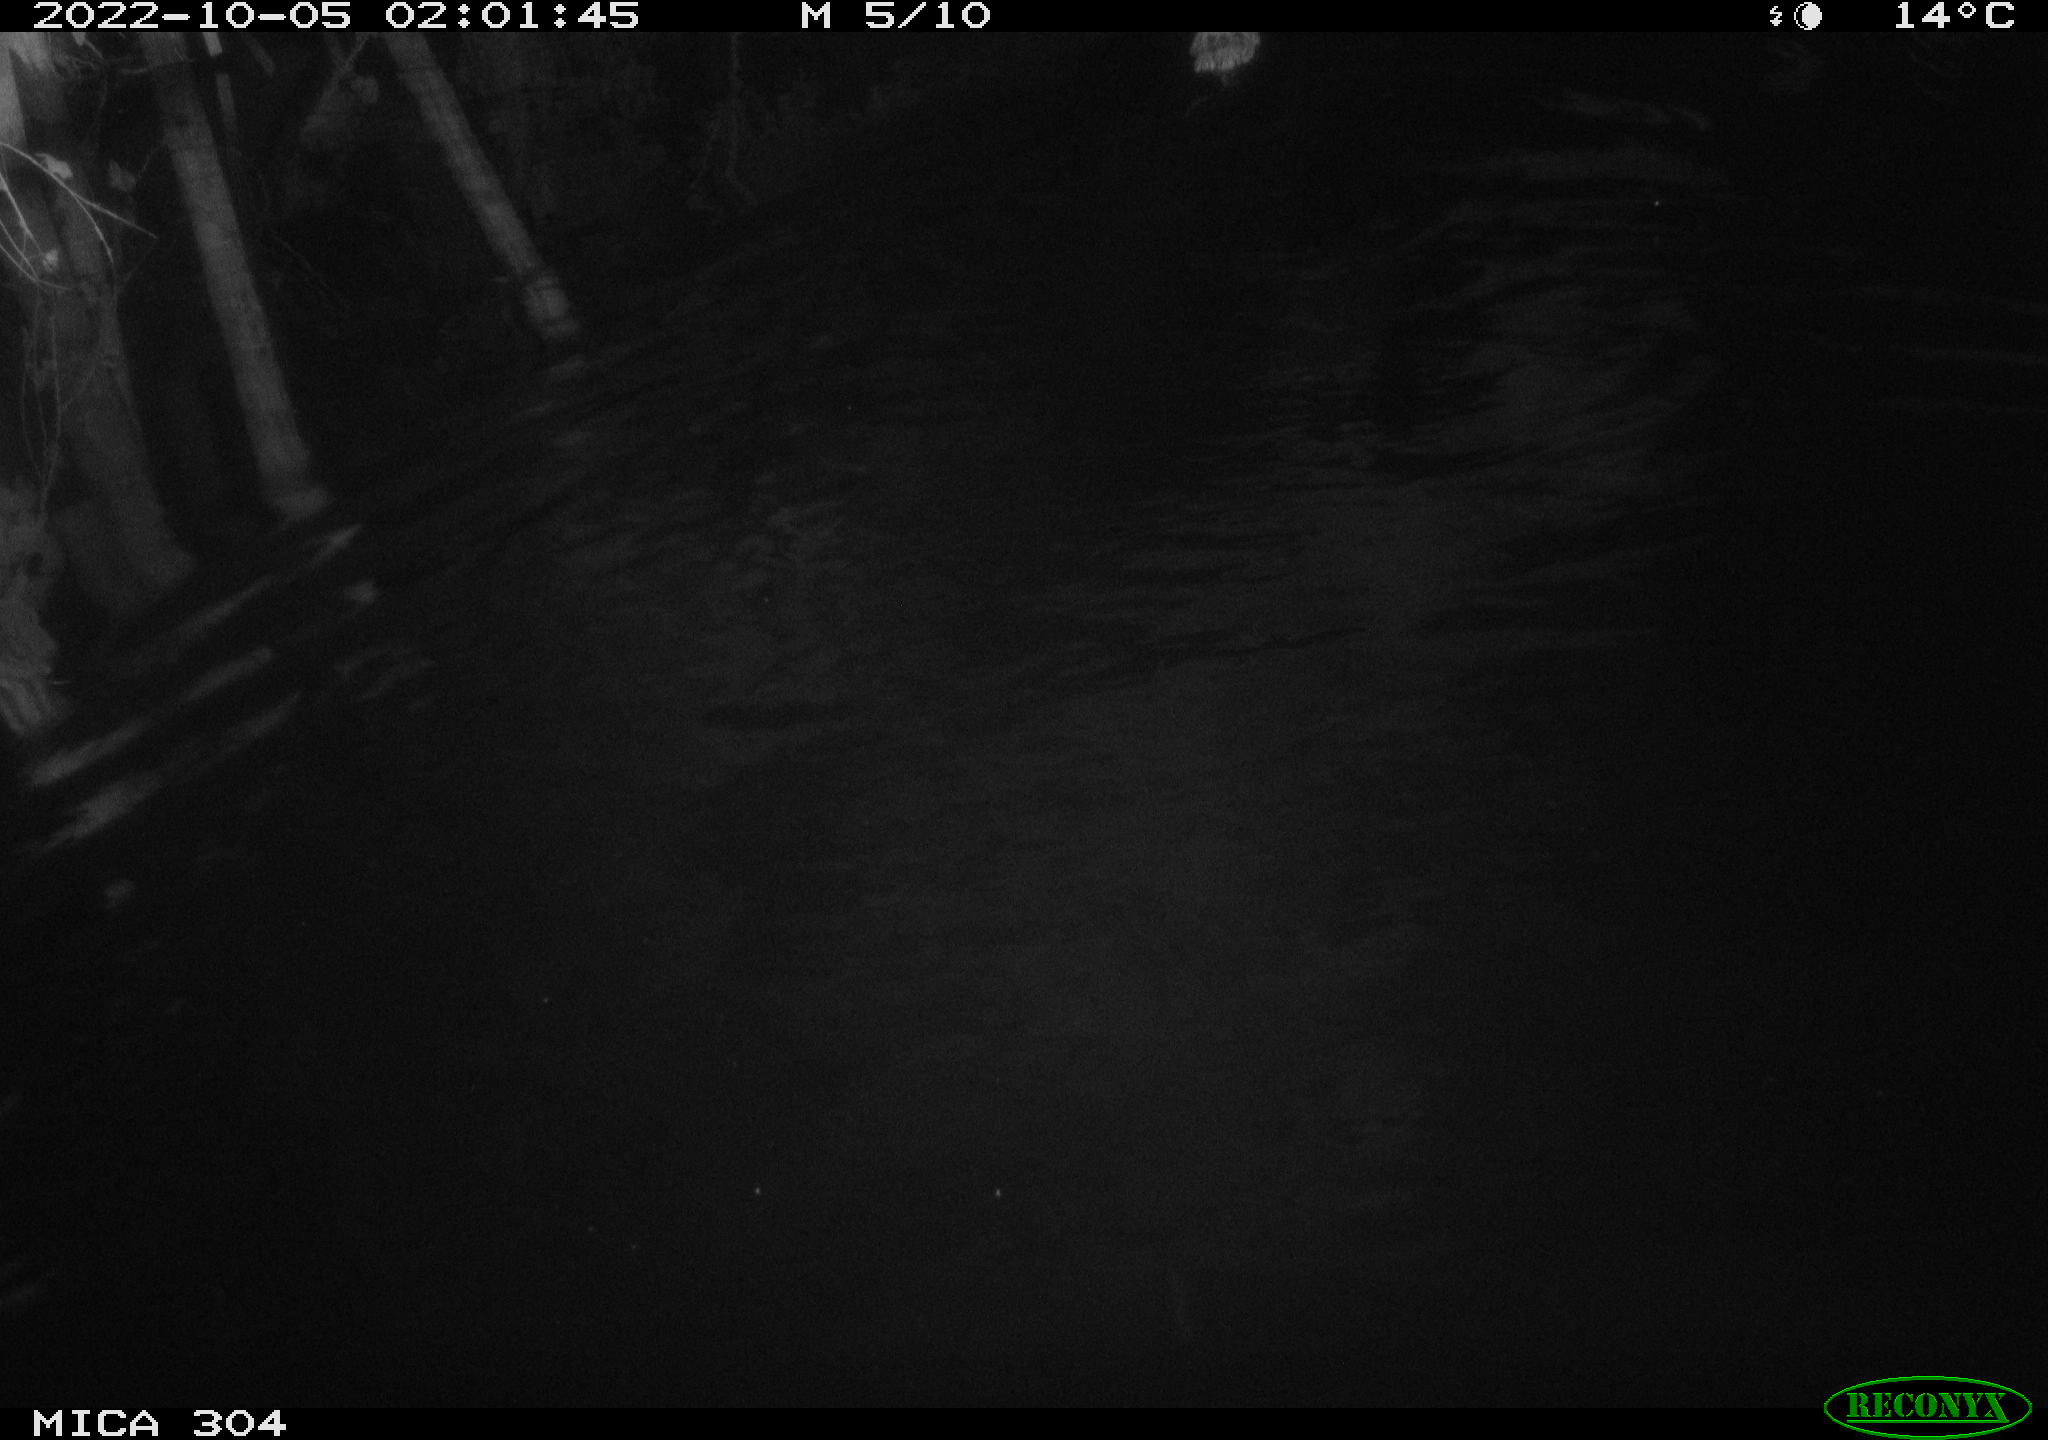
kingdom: Animalia
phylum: Chordata
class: Mammalia
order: Rodentia
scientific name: Rodentia
